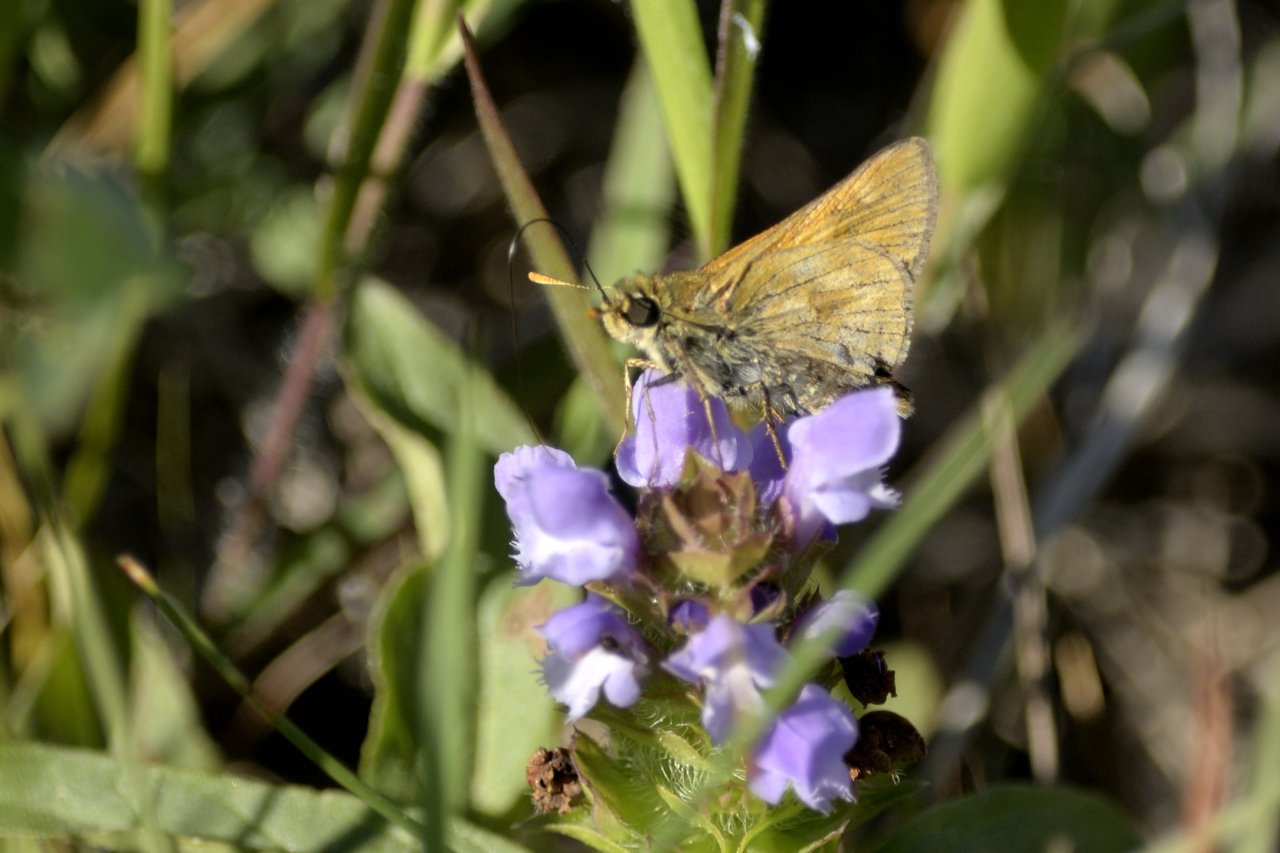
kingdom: Animalia
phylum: Arthropoda
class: Insecta
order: Lepidoptera
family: Hesperiidae
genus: Polites
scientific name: Polites
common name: Long Dash Skipper
